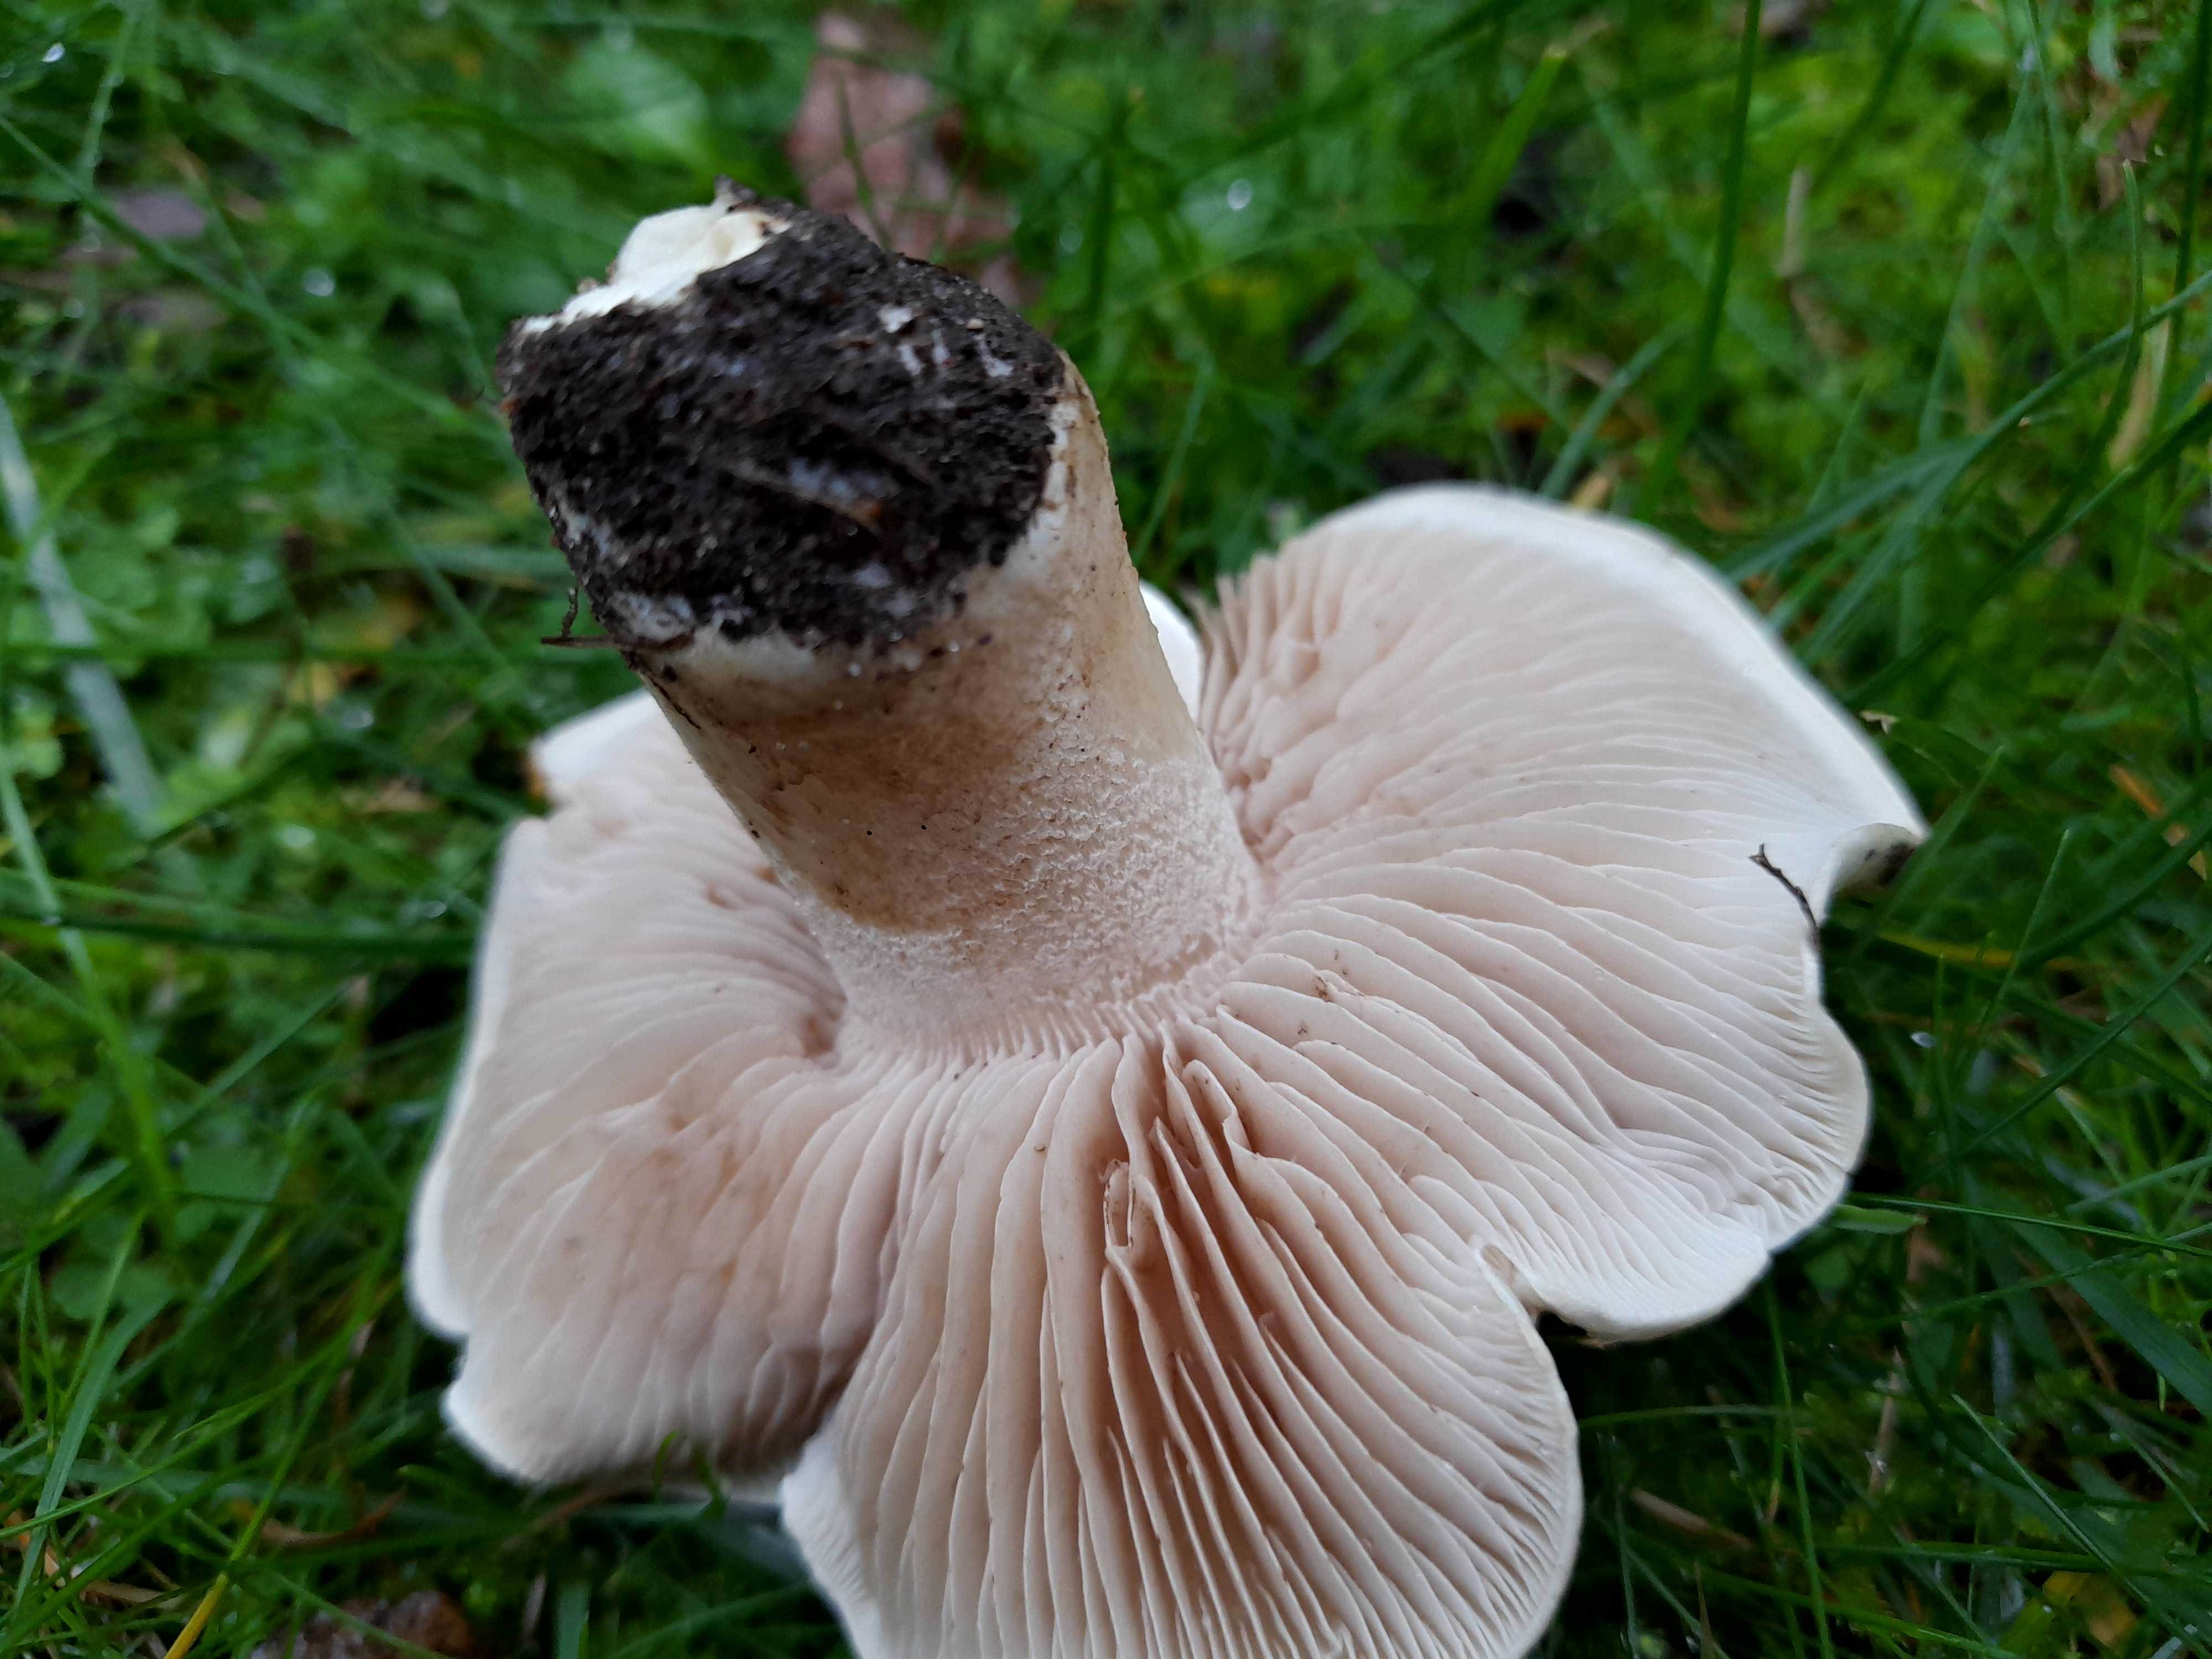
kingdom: Fungi
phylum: Basidiomycota
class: Agaricomycetes
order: Agaricales
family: Hymenogastraceae
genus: Hebeloma
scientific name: Hebeloma
